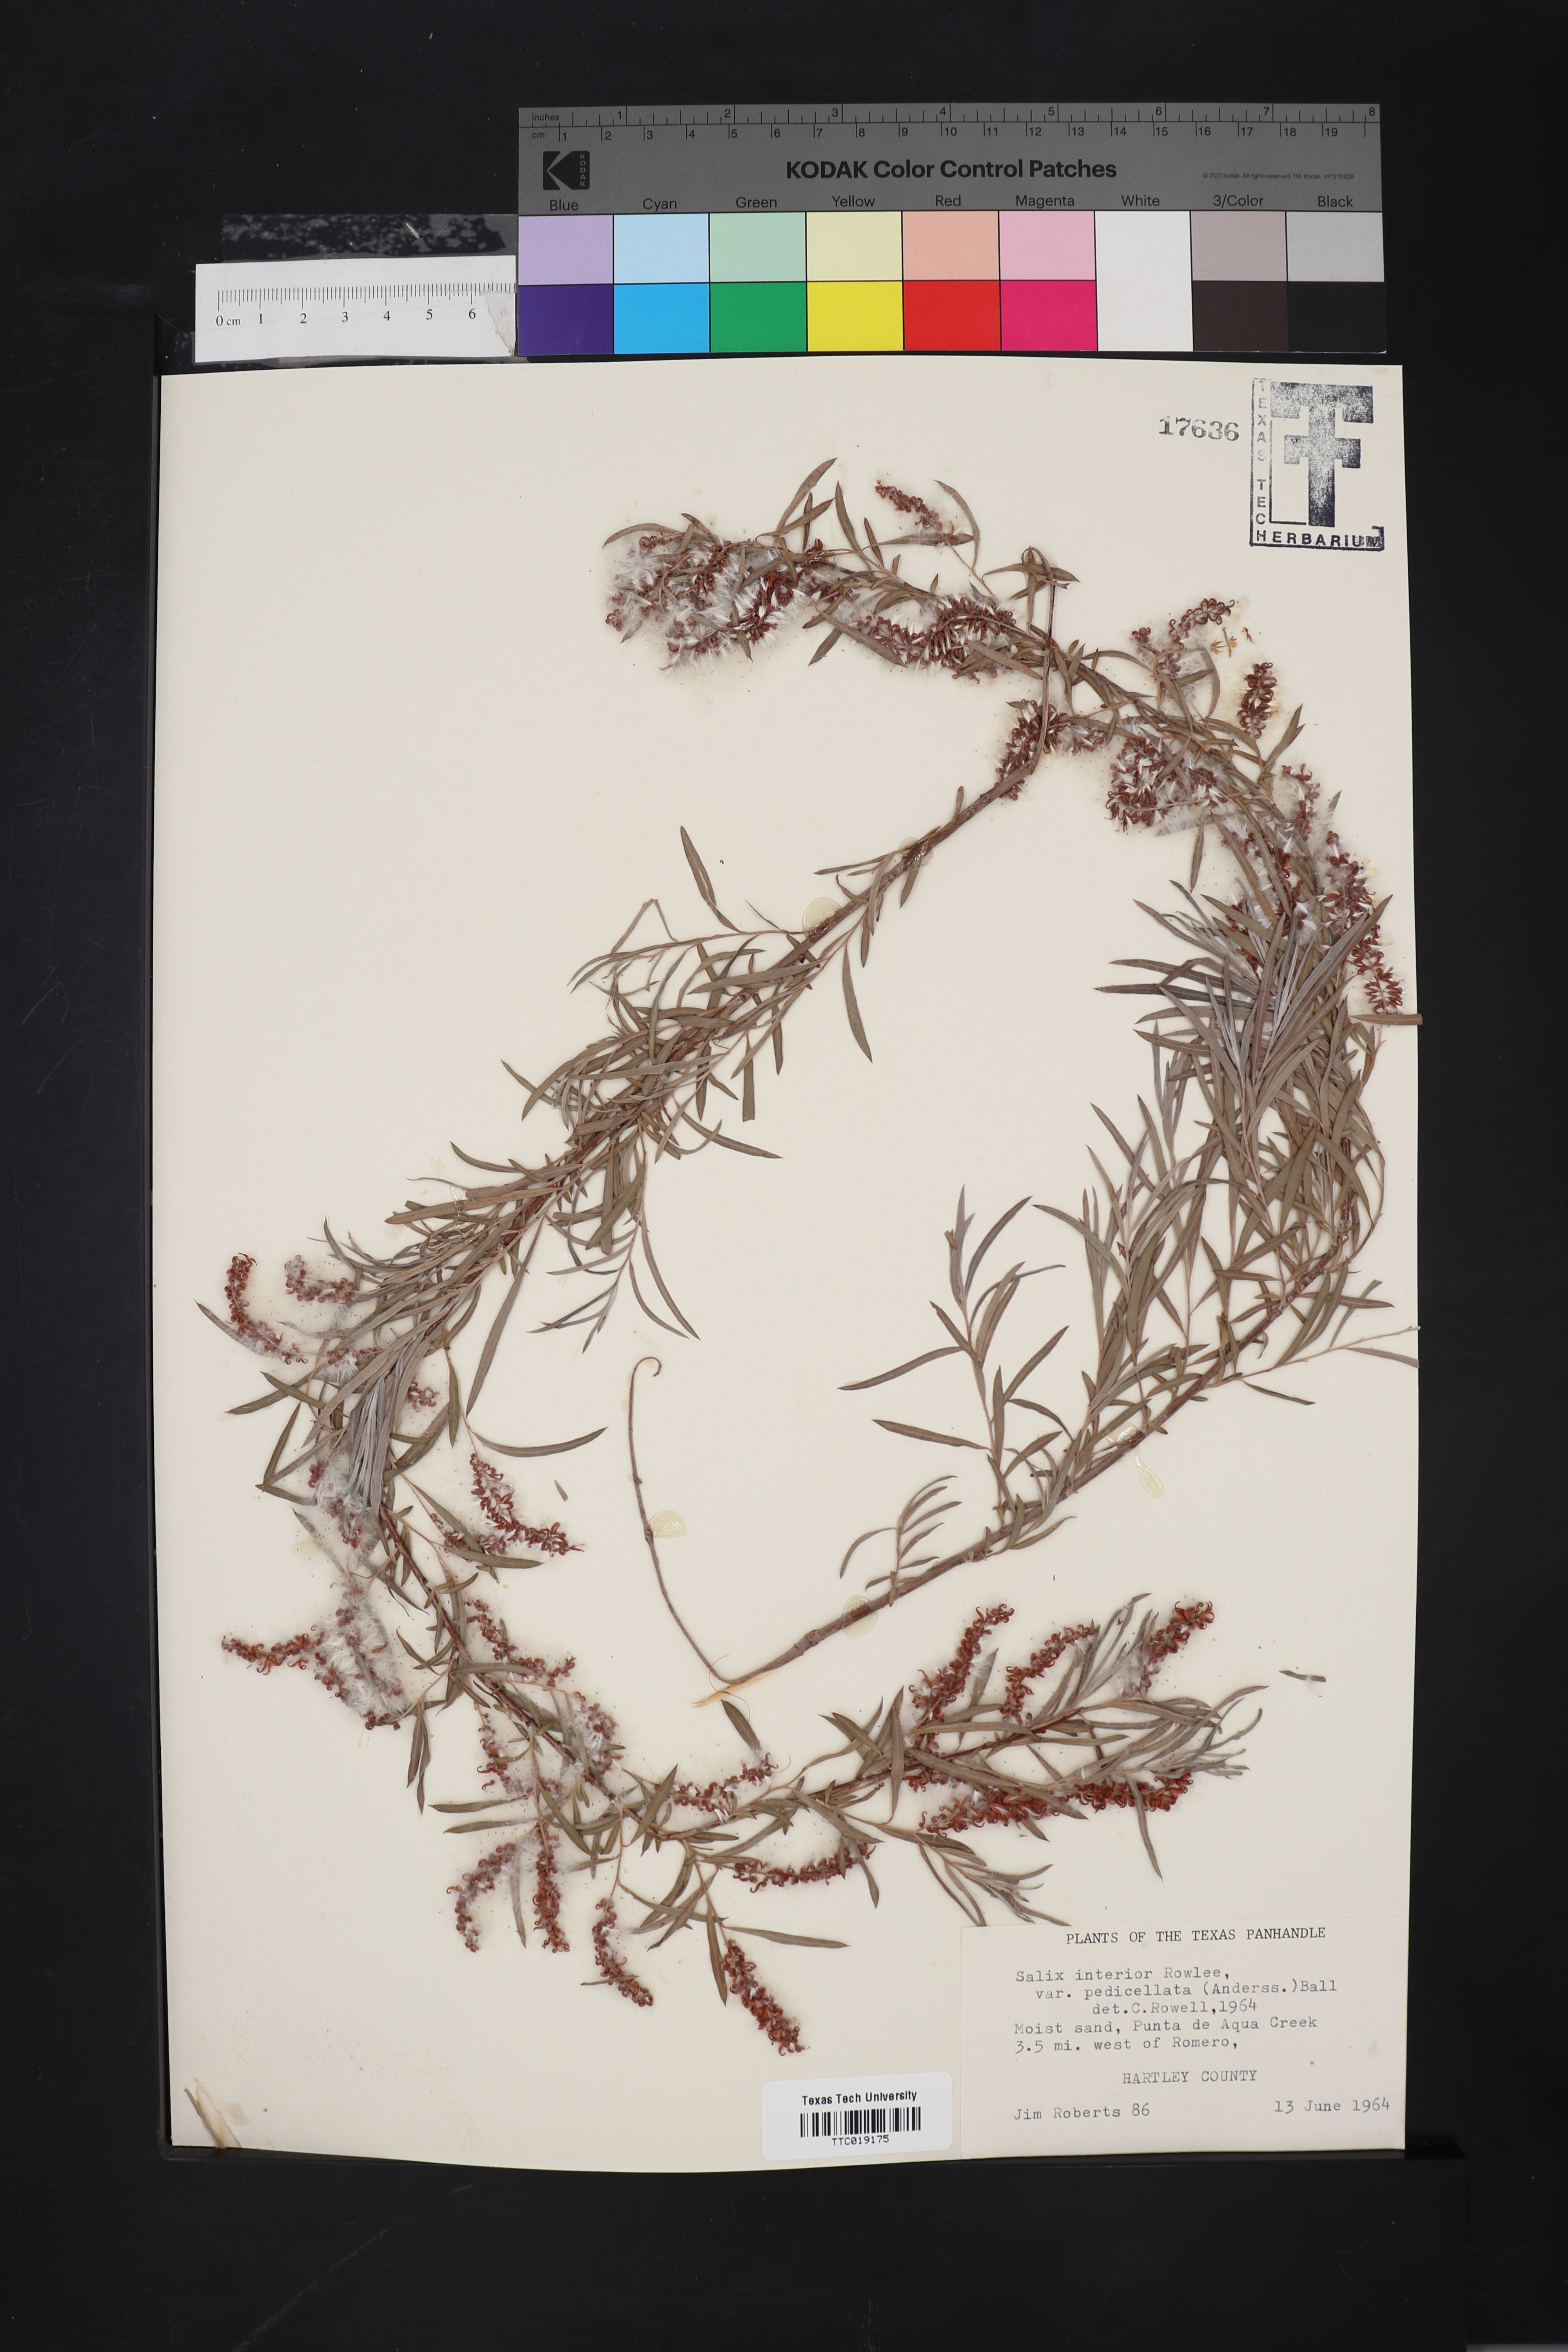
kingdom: Plantae
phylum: Tracheophyta
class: Magnoliopsida
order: Malpighiales
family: Salicaceae
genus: Salix
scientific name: Salix interior
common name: Sandbar willow
